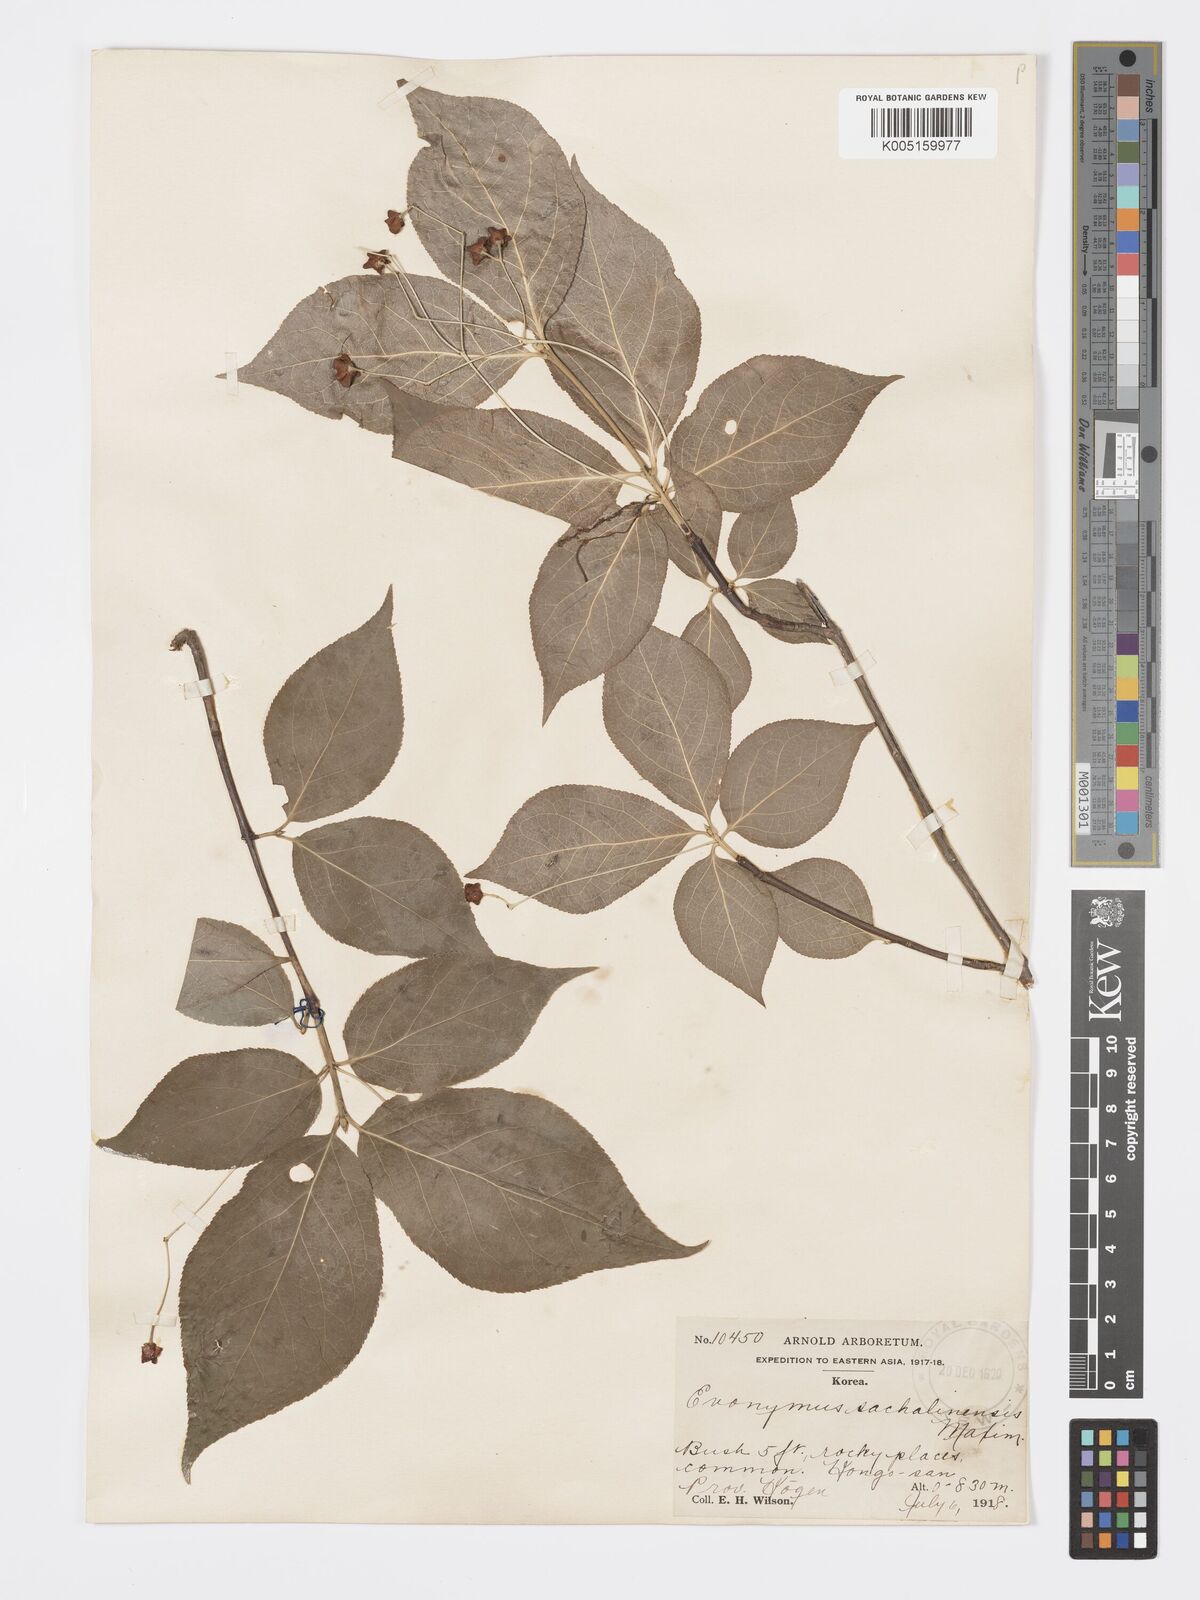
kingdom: Plantae
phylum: Tracheophyta
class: Magnoliopsida
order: Celastrales
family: Celastraceae
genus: Euonymus
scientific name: Euonymus sachalinensis
